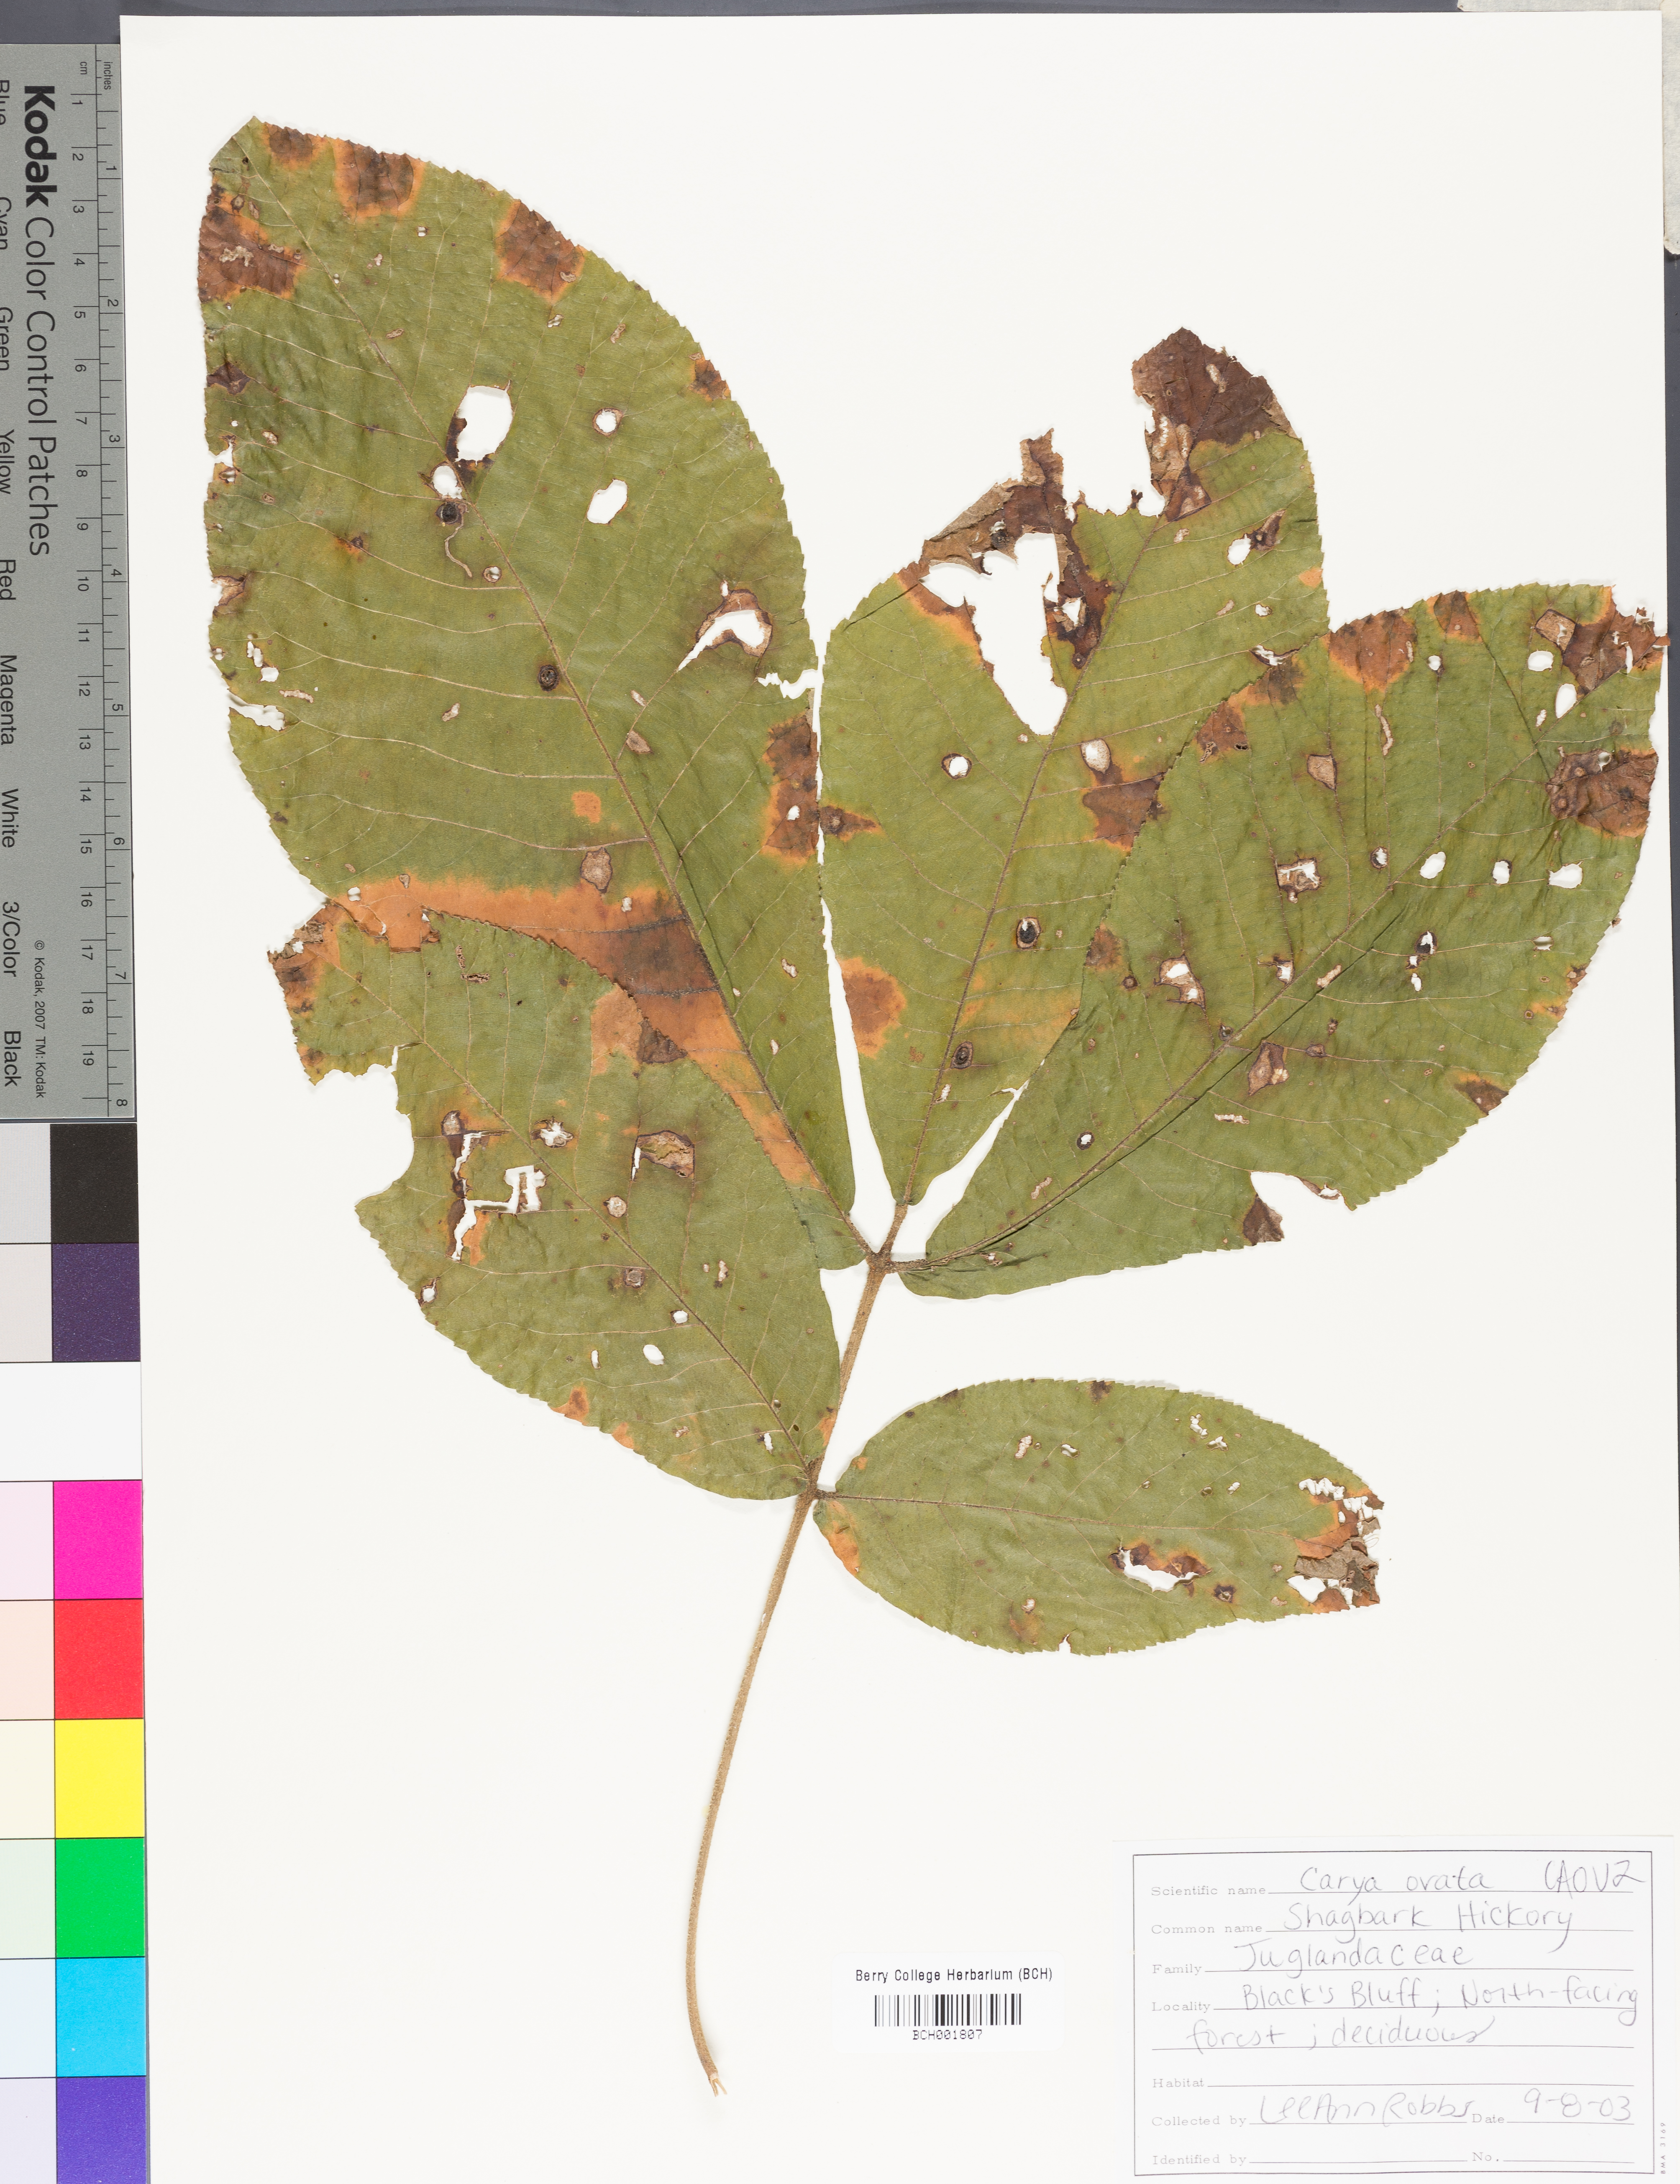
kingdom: Plantae
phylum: Tracheophyta
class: Magnoliopsida
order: Fagales
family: Juglandaceae
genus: Carya
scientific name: Carya ovata
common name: Shagbark hickory
